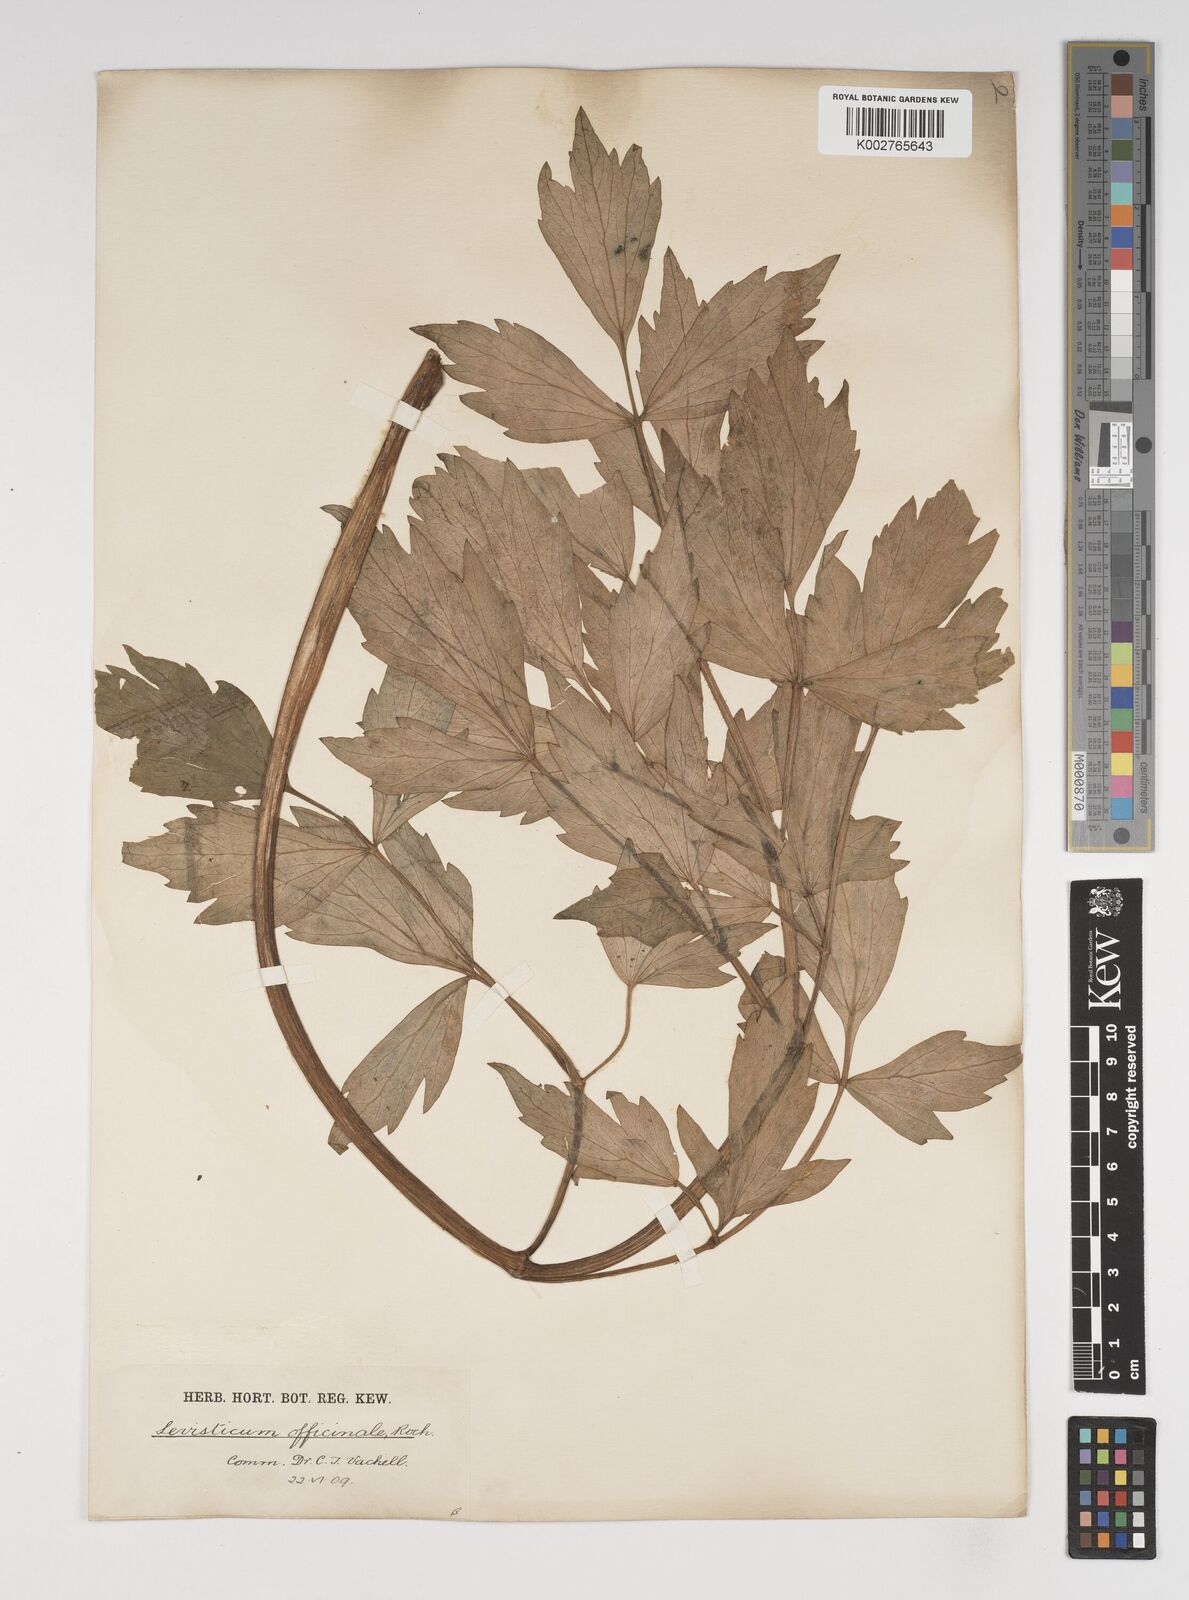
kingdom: Plantae
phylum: Tracheophyta
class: Magnoliopsida
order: Apiales
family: Apiaceae
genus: Levisticum
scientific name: Levisticum officinale
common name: Lovage
